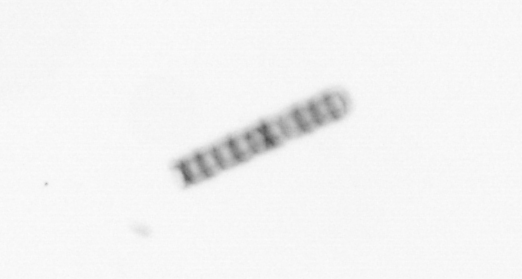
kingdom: Chromista
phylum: Ochrophyta
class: Bacillariophyceae
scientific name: Bacillariophyceae
